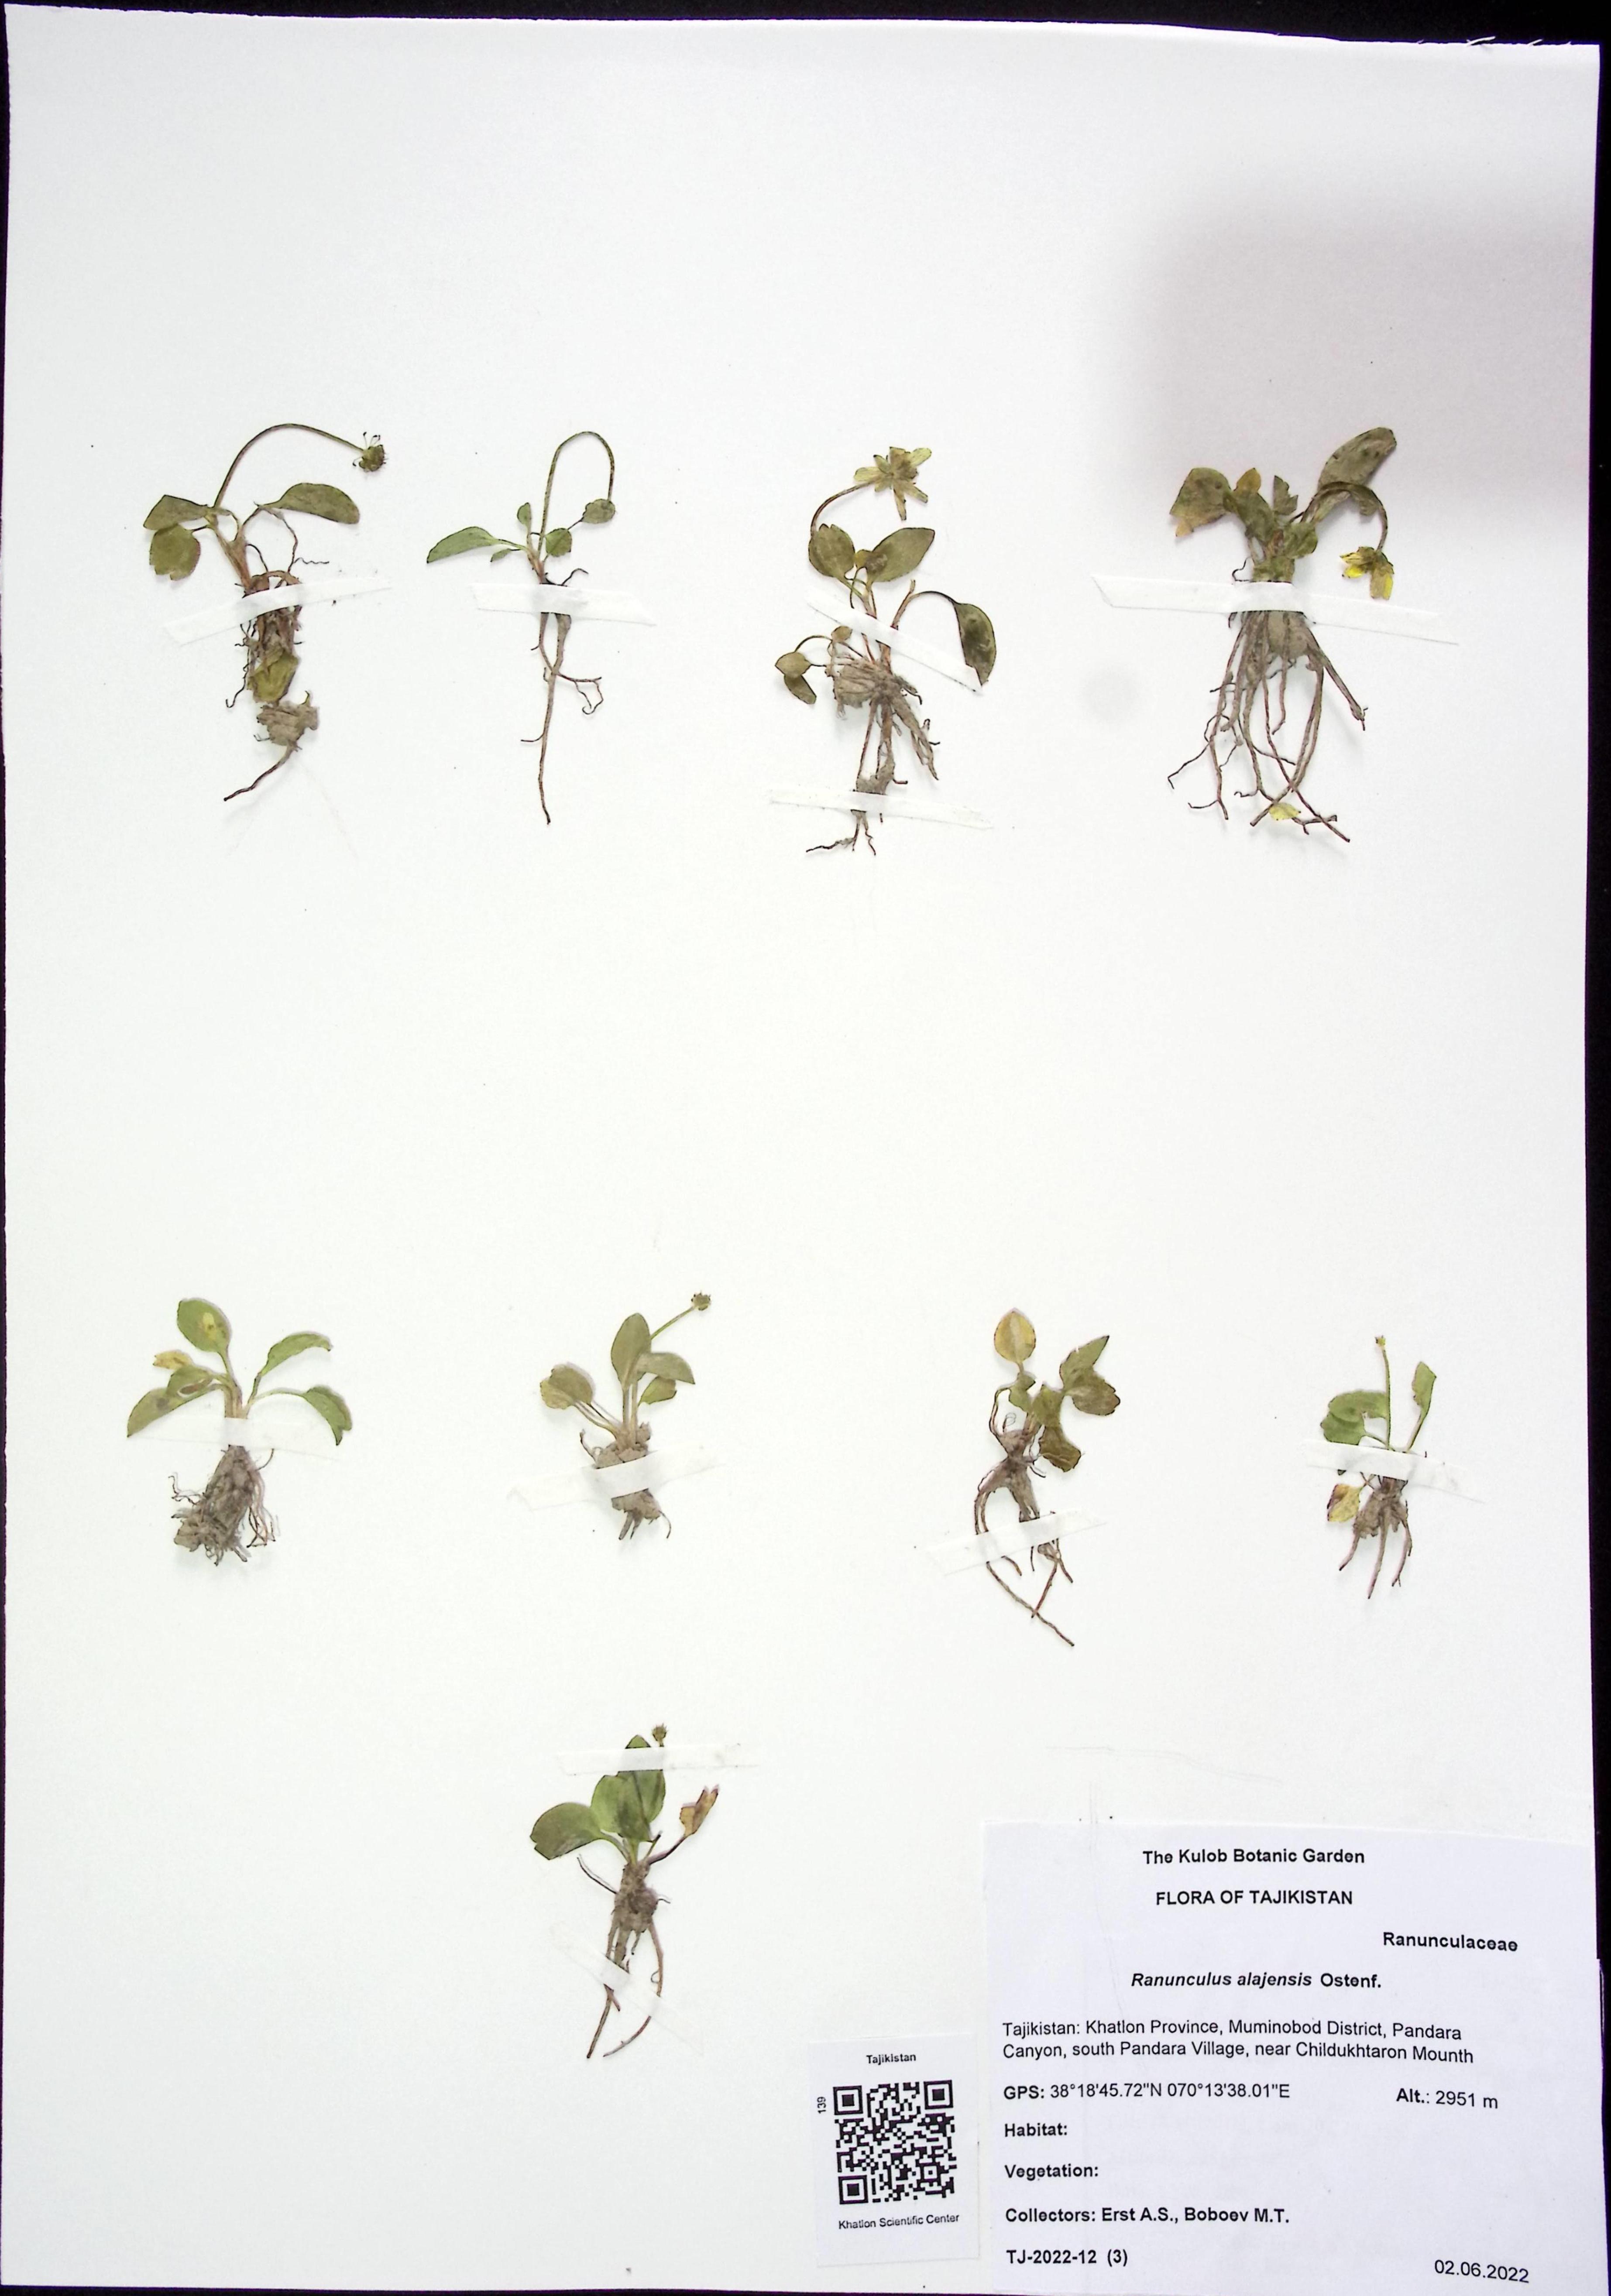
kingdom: Plantae
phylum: Tracheophyta
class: Magnoliopsida
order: Ranunculales
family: Ranunculaceae
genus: Ranunculus
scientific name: Ranunculus alaiensis
